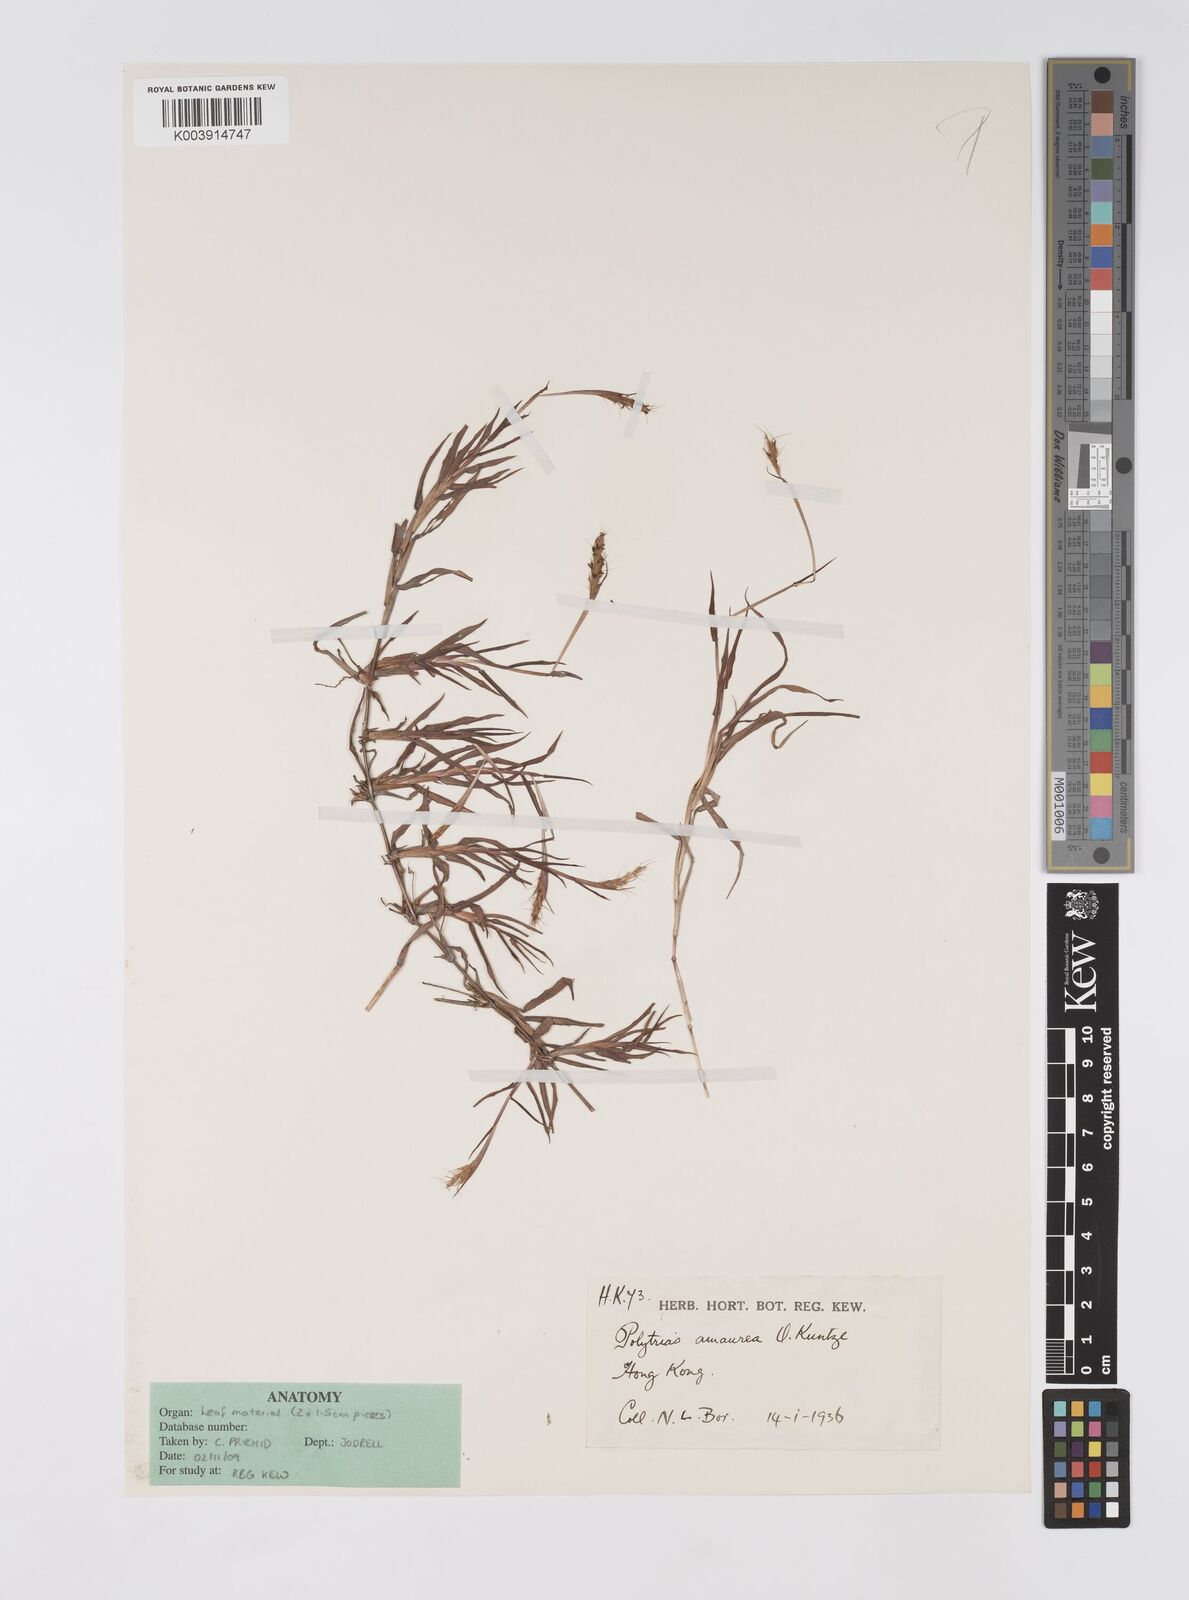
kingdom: Plantae
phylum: Tracheophyta
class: Liliopsida
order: Poales
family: Poaceae
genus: Polytrias
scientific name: Polytrias indica
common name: Indian murainagrass
